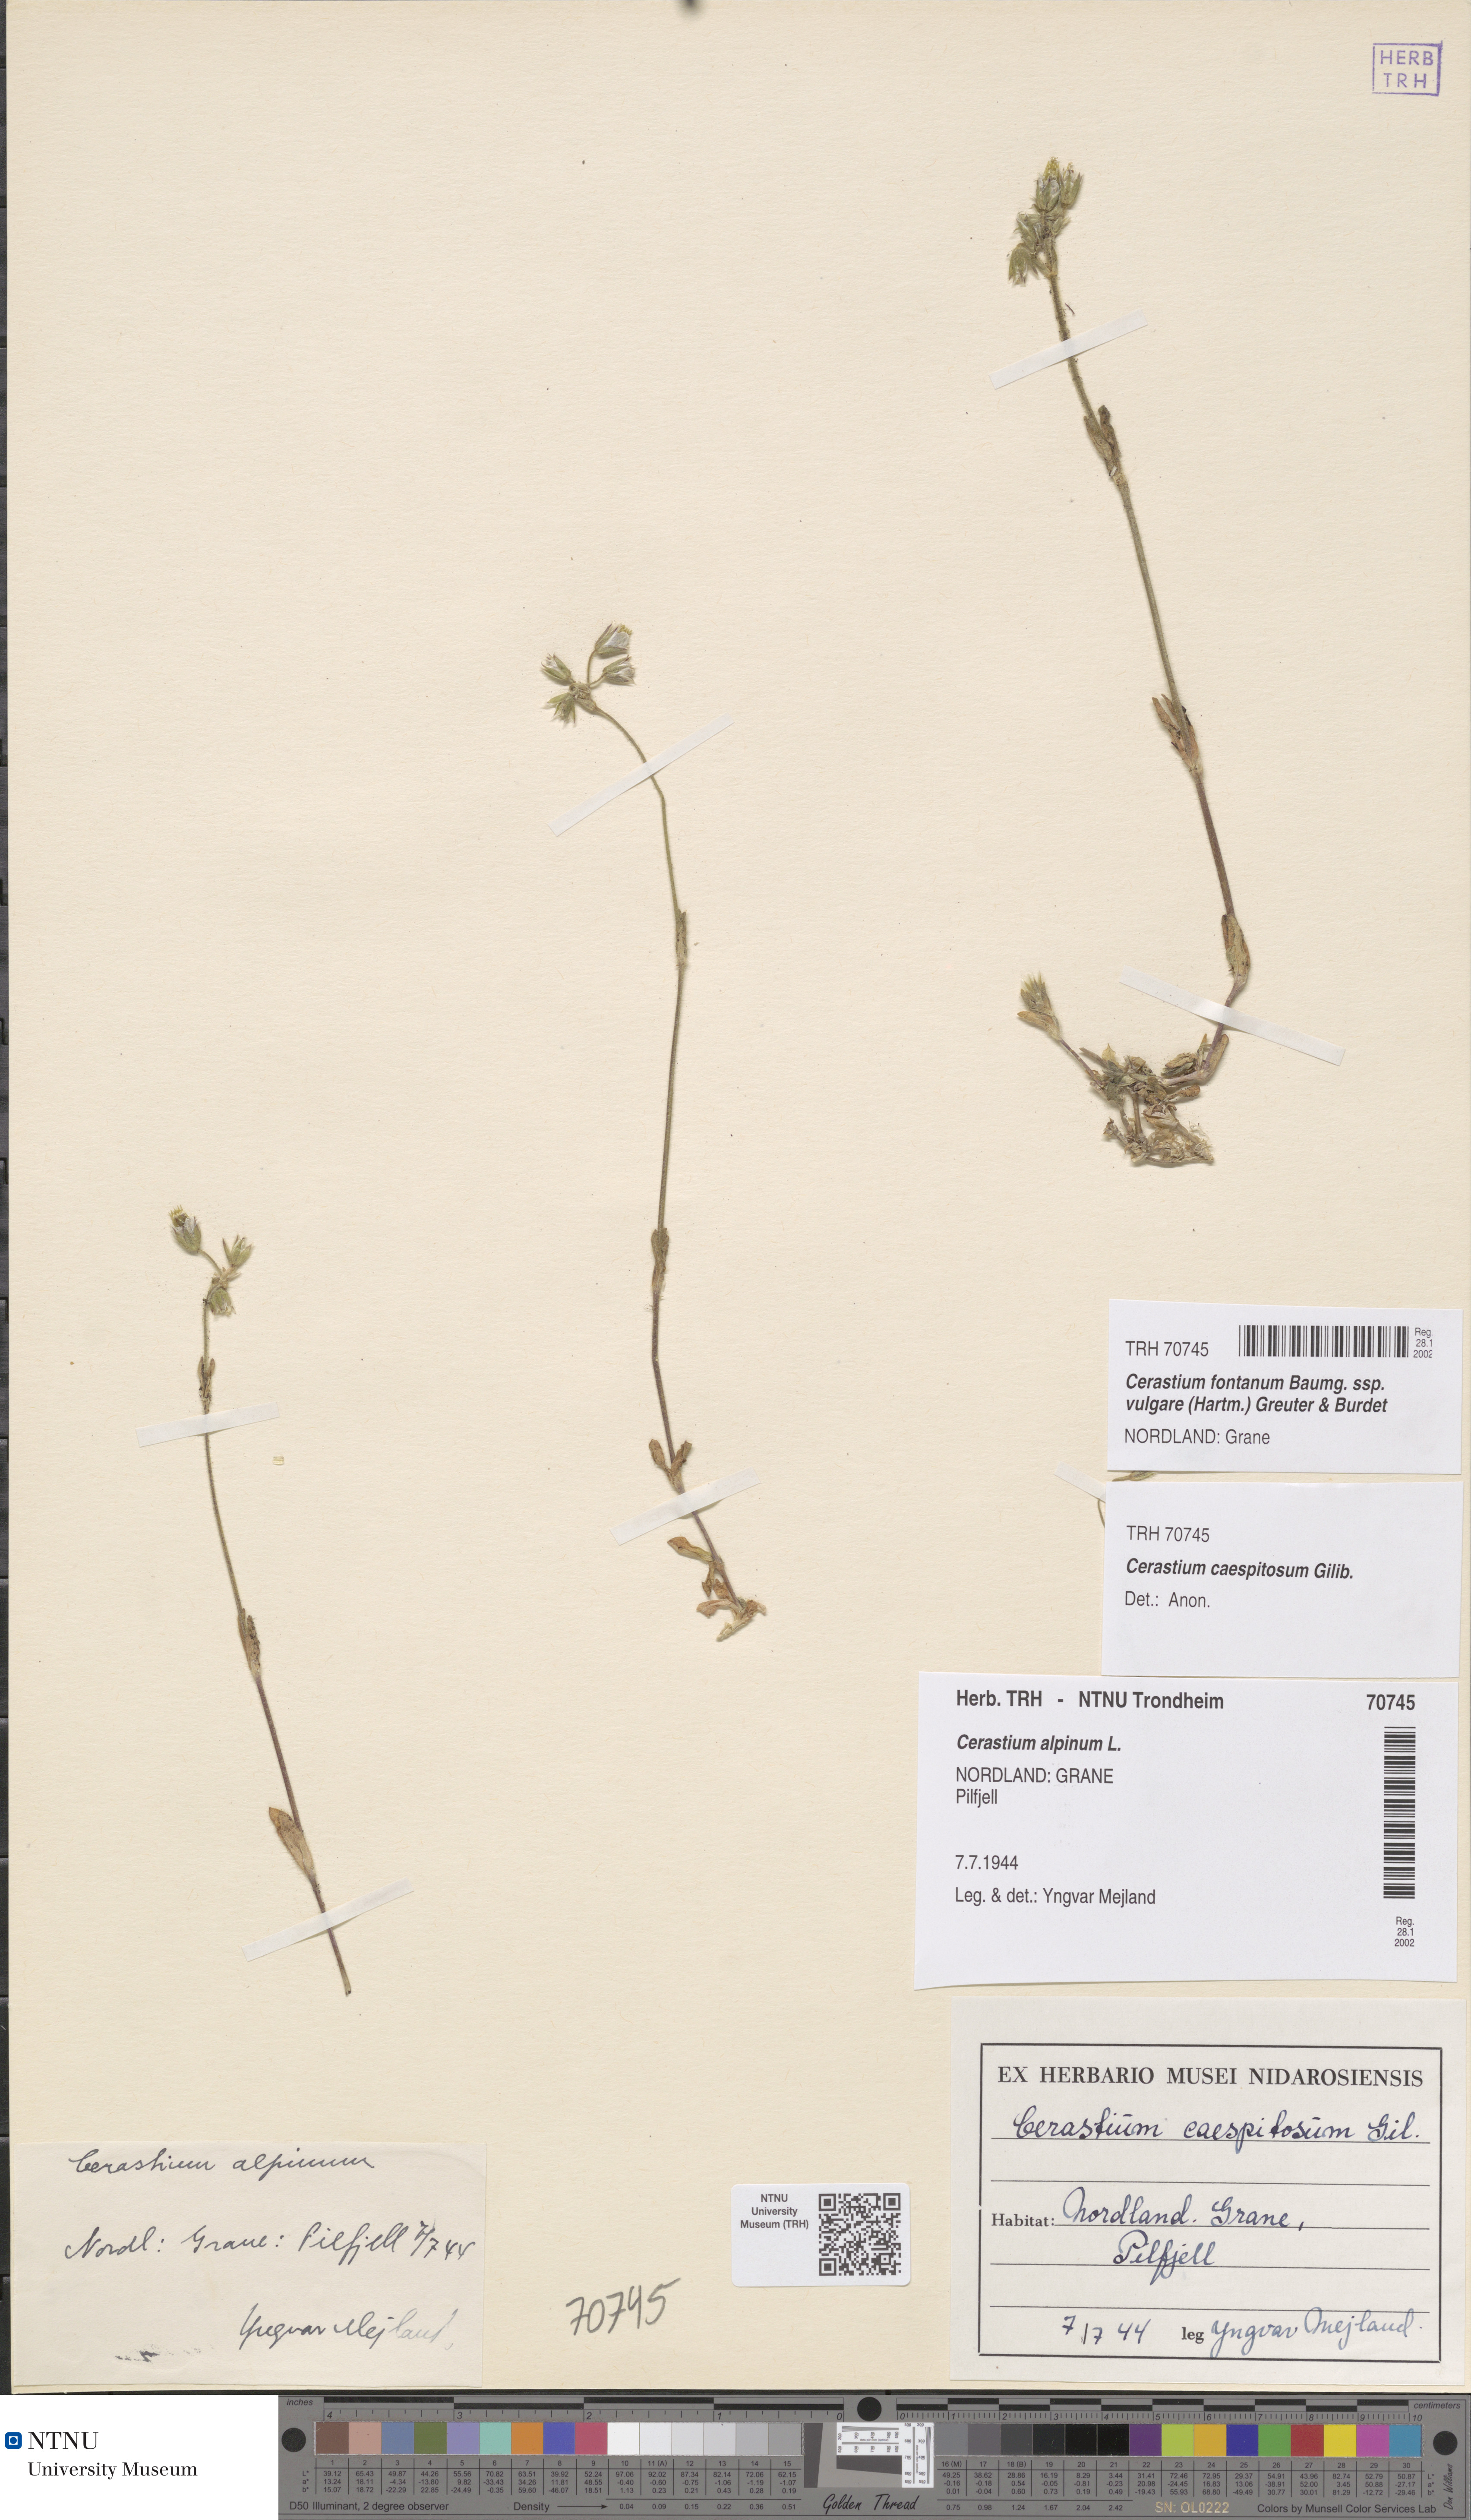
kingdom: Plantae
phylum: Tracheophyta
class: Magnoliopsida
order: Caryophyllales
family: Caryophyllaceae
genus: Cerastium
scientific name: Cerastium holosteoides
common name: Big chickweed
